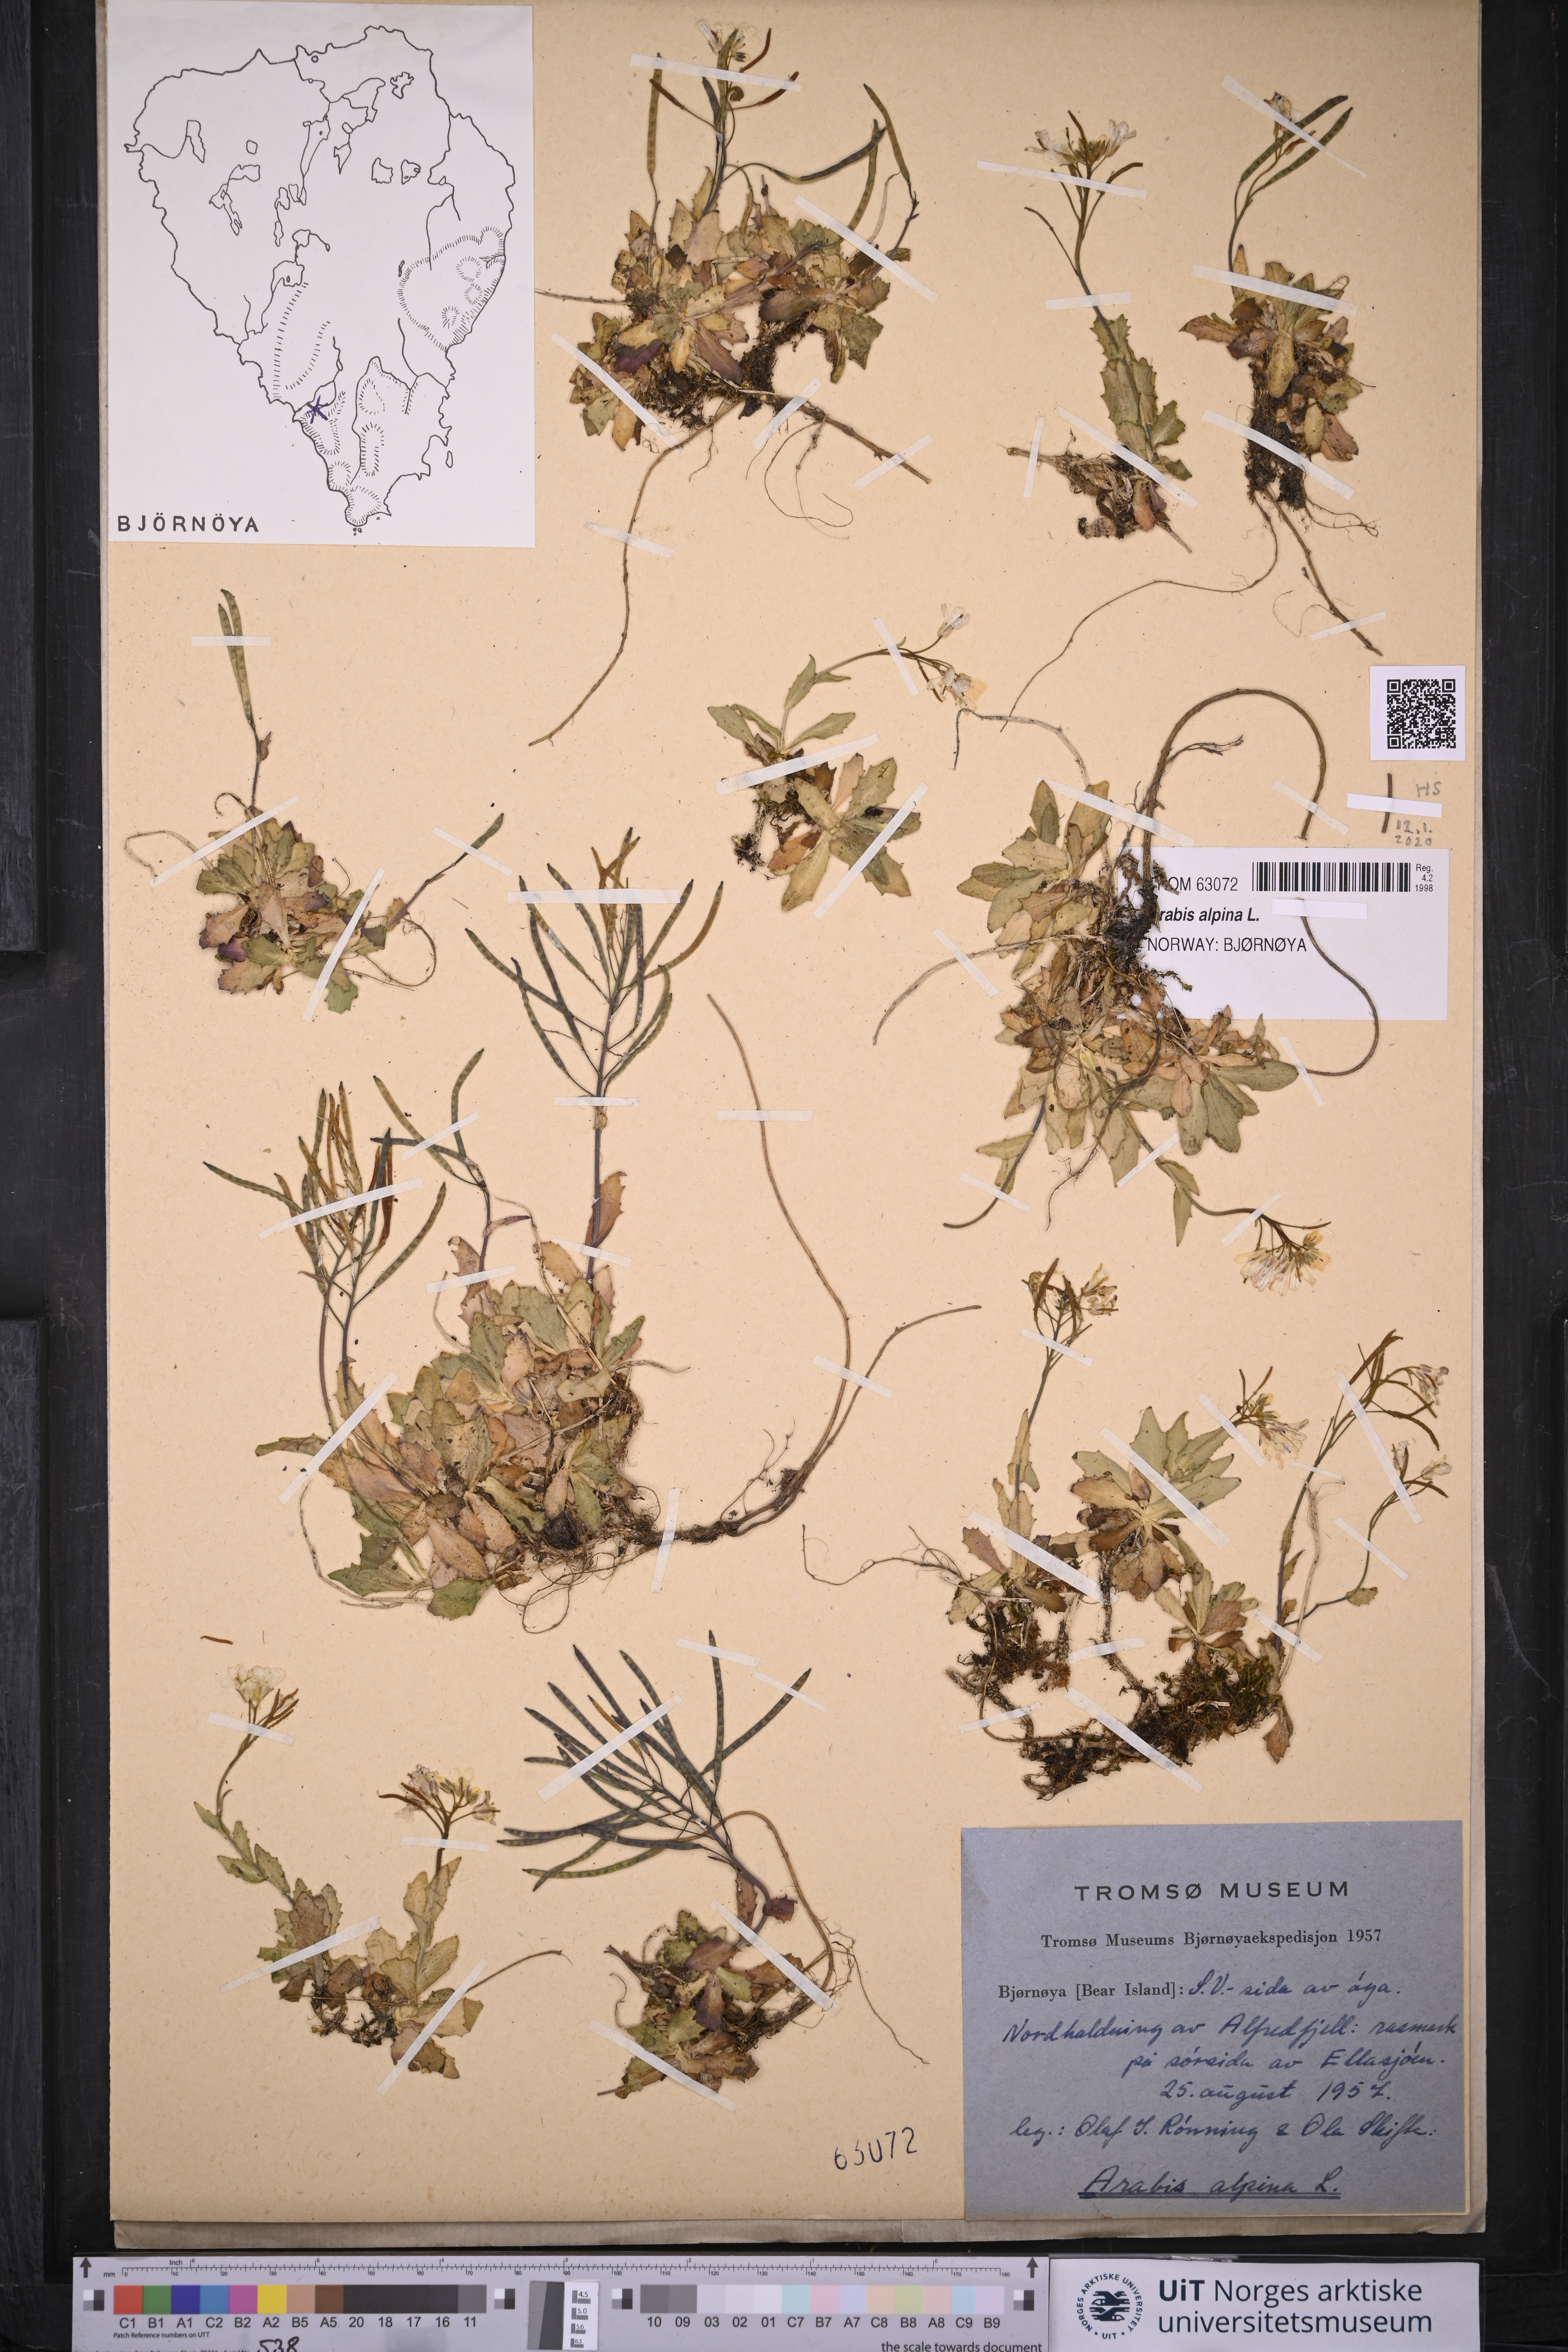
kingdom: Plantae
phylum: Tracheophyta
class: Magnoliopsida
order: Brassicales
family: Brassicaceae
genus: Arabis
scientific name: Arabis alpina
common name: Alpine rock-cress
